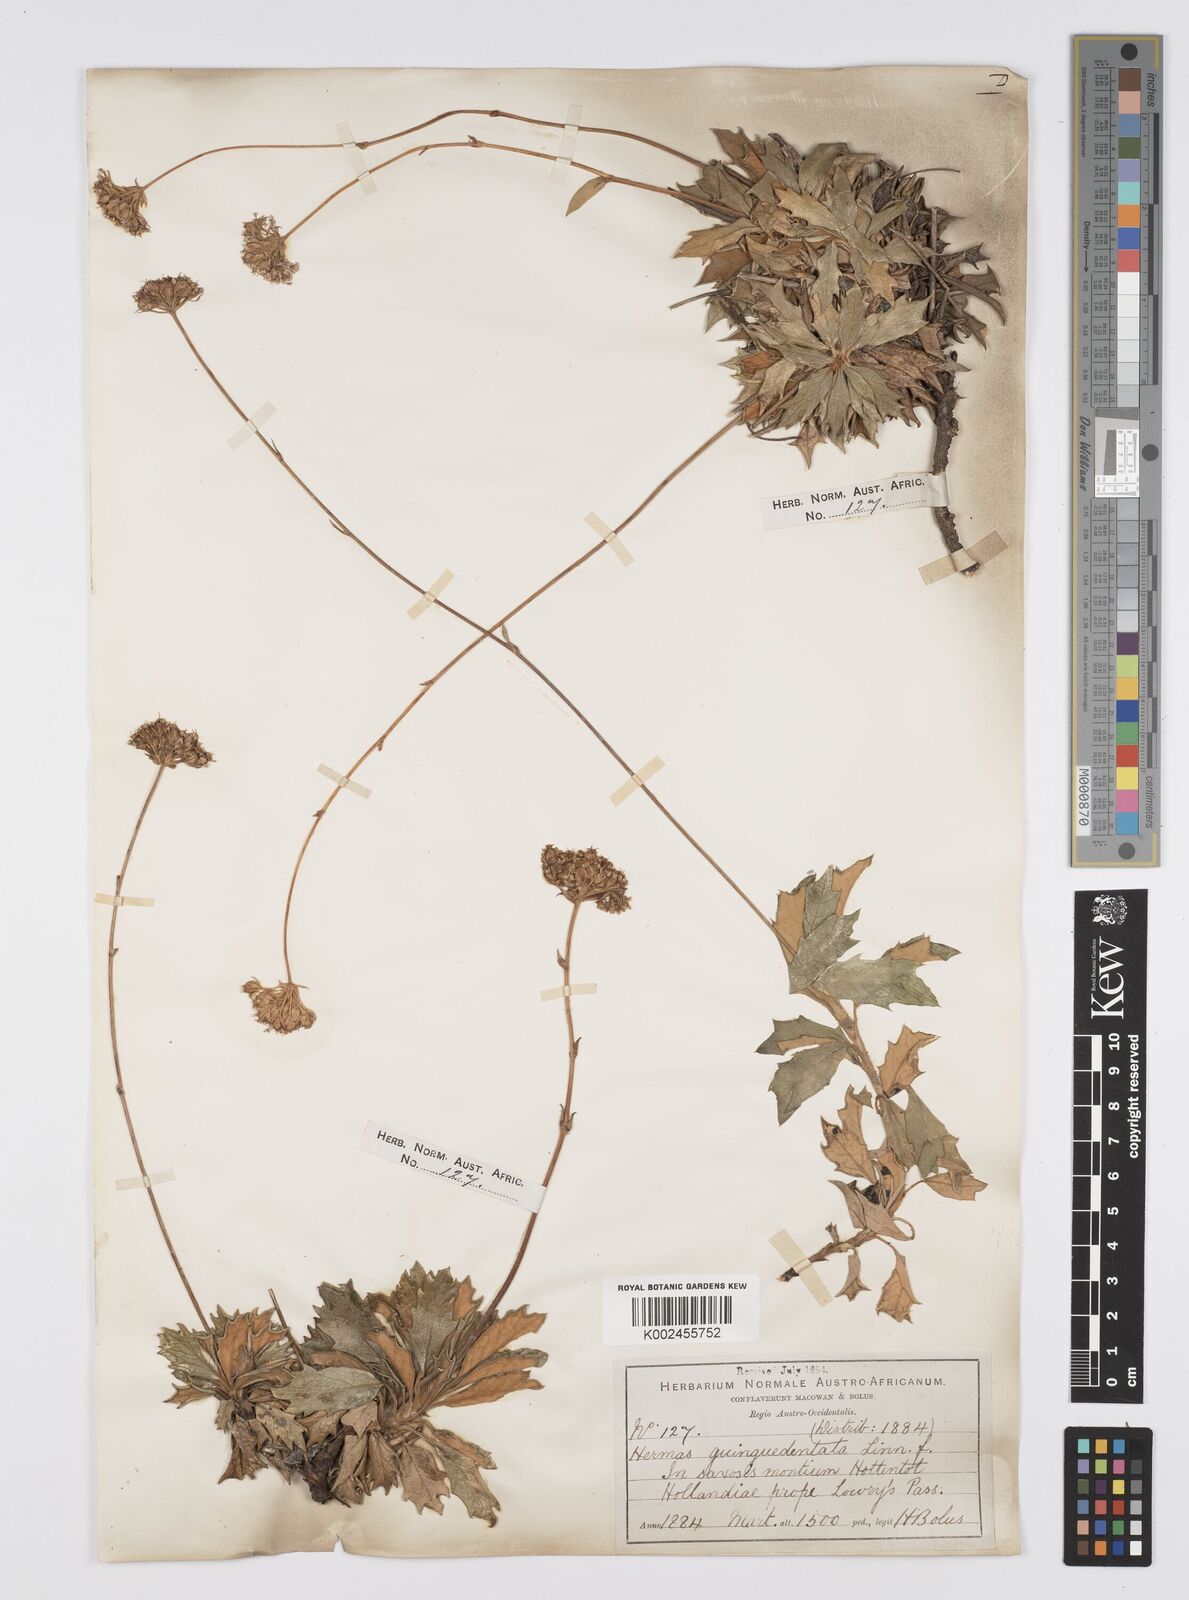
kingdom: Plantae
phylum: Tracheophyta
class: Magnoliopsida
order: Apiales
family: Apiaceae
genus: Hermas
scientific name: Hermas quinquedentata
